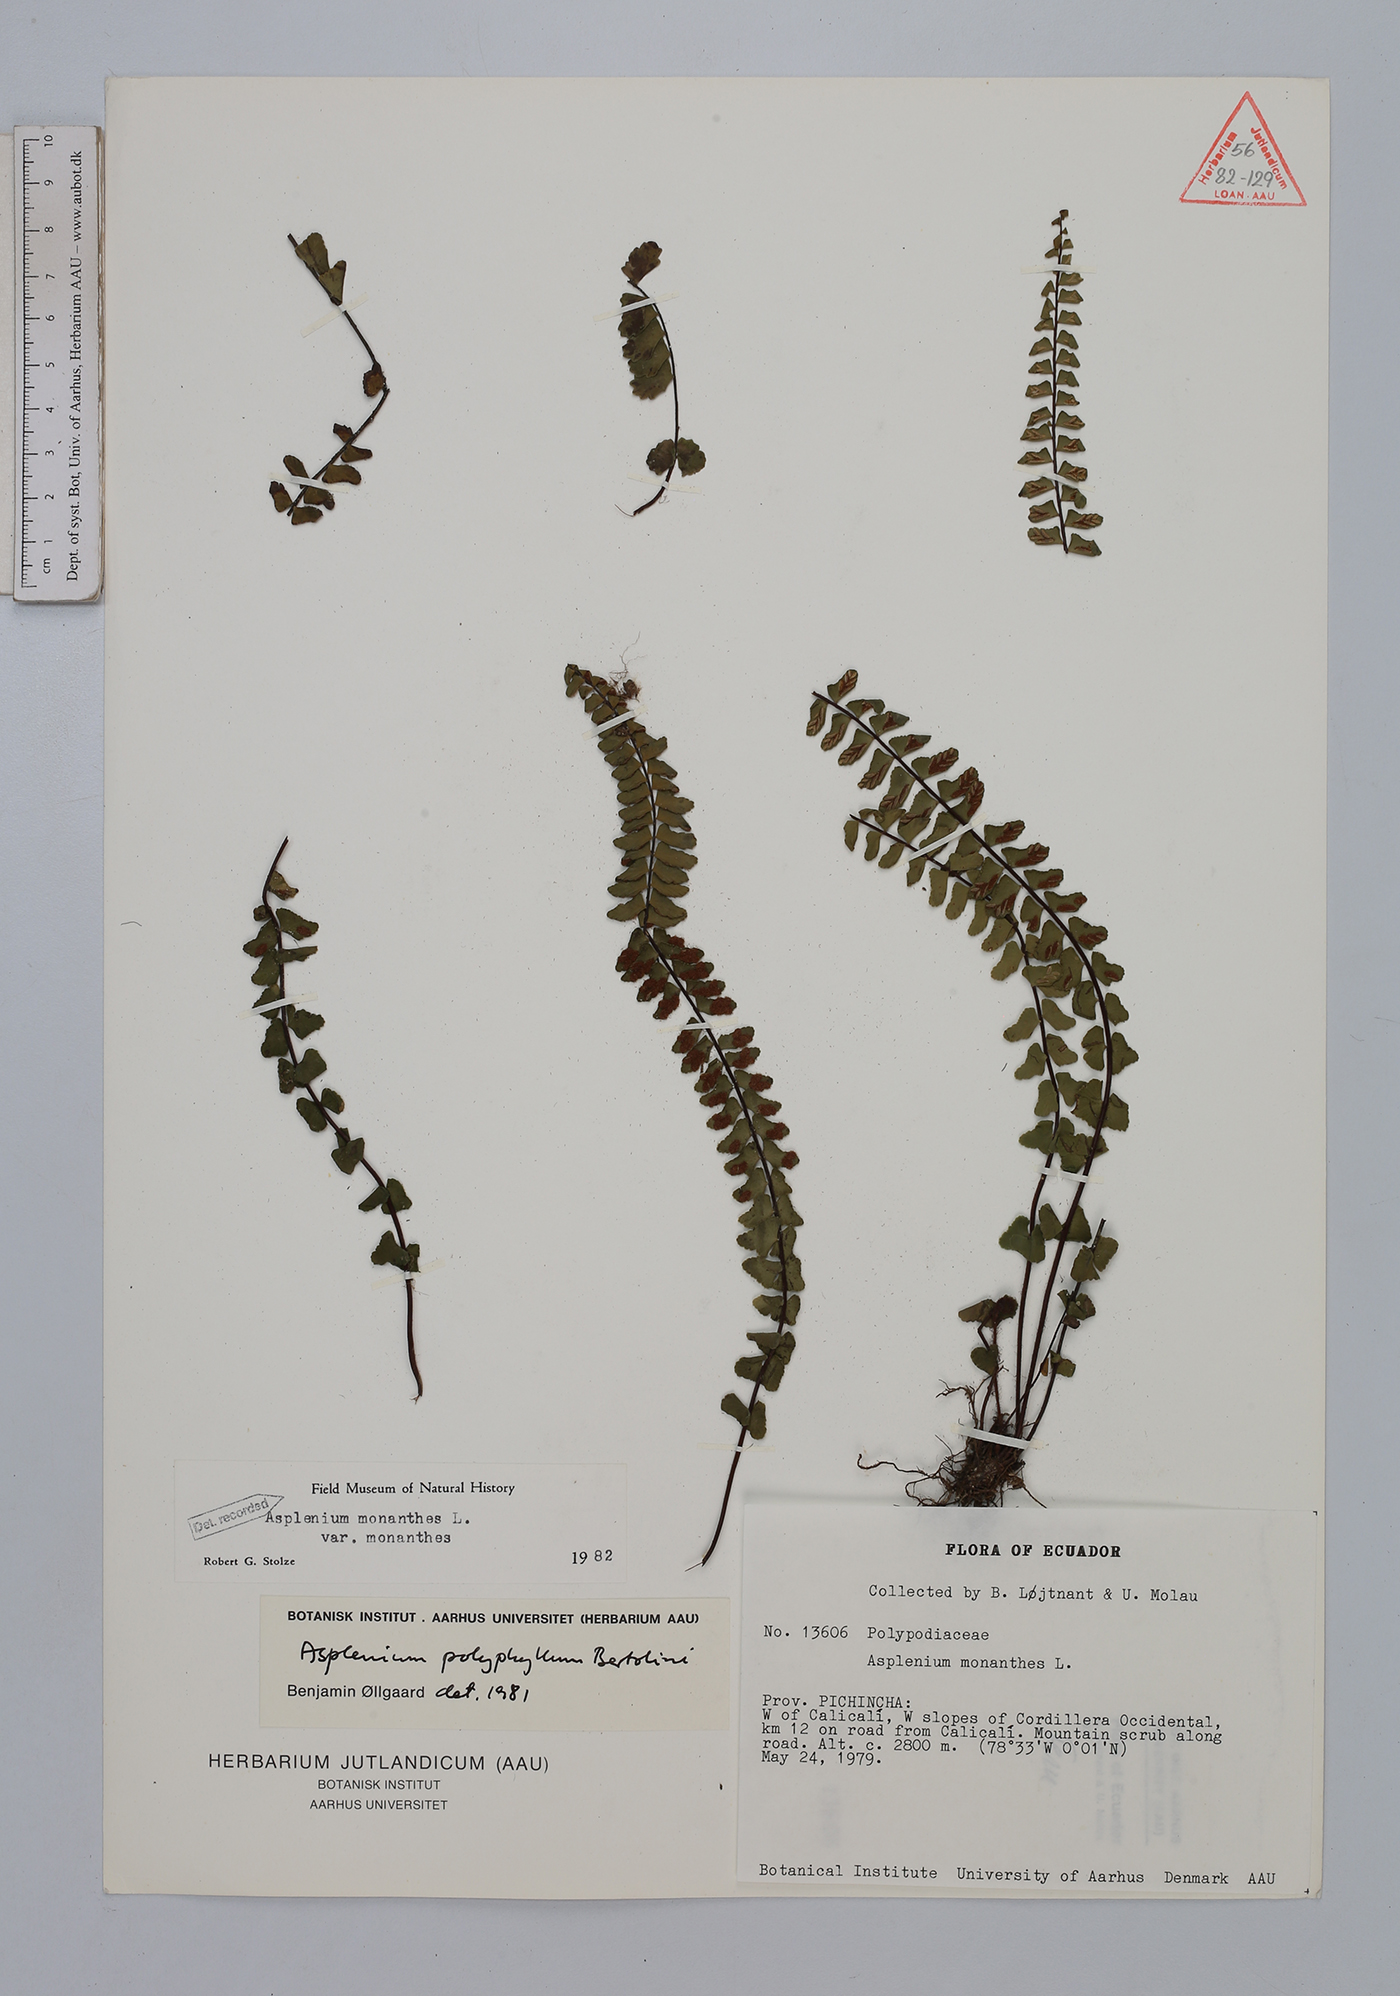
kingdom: Plantae
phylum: Tracheophyta
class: Polypodiopsida
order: Polypodiales
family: Aspleniaceae
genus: Asplenium
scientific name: Asplenium monanthes
